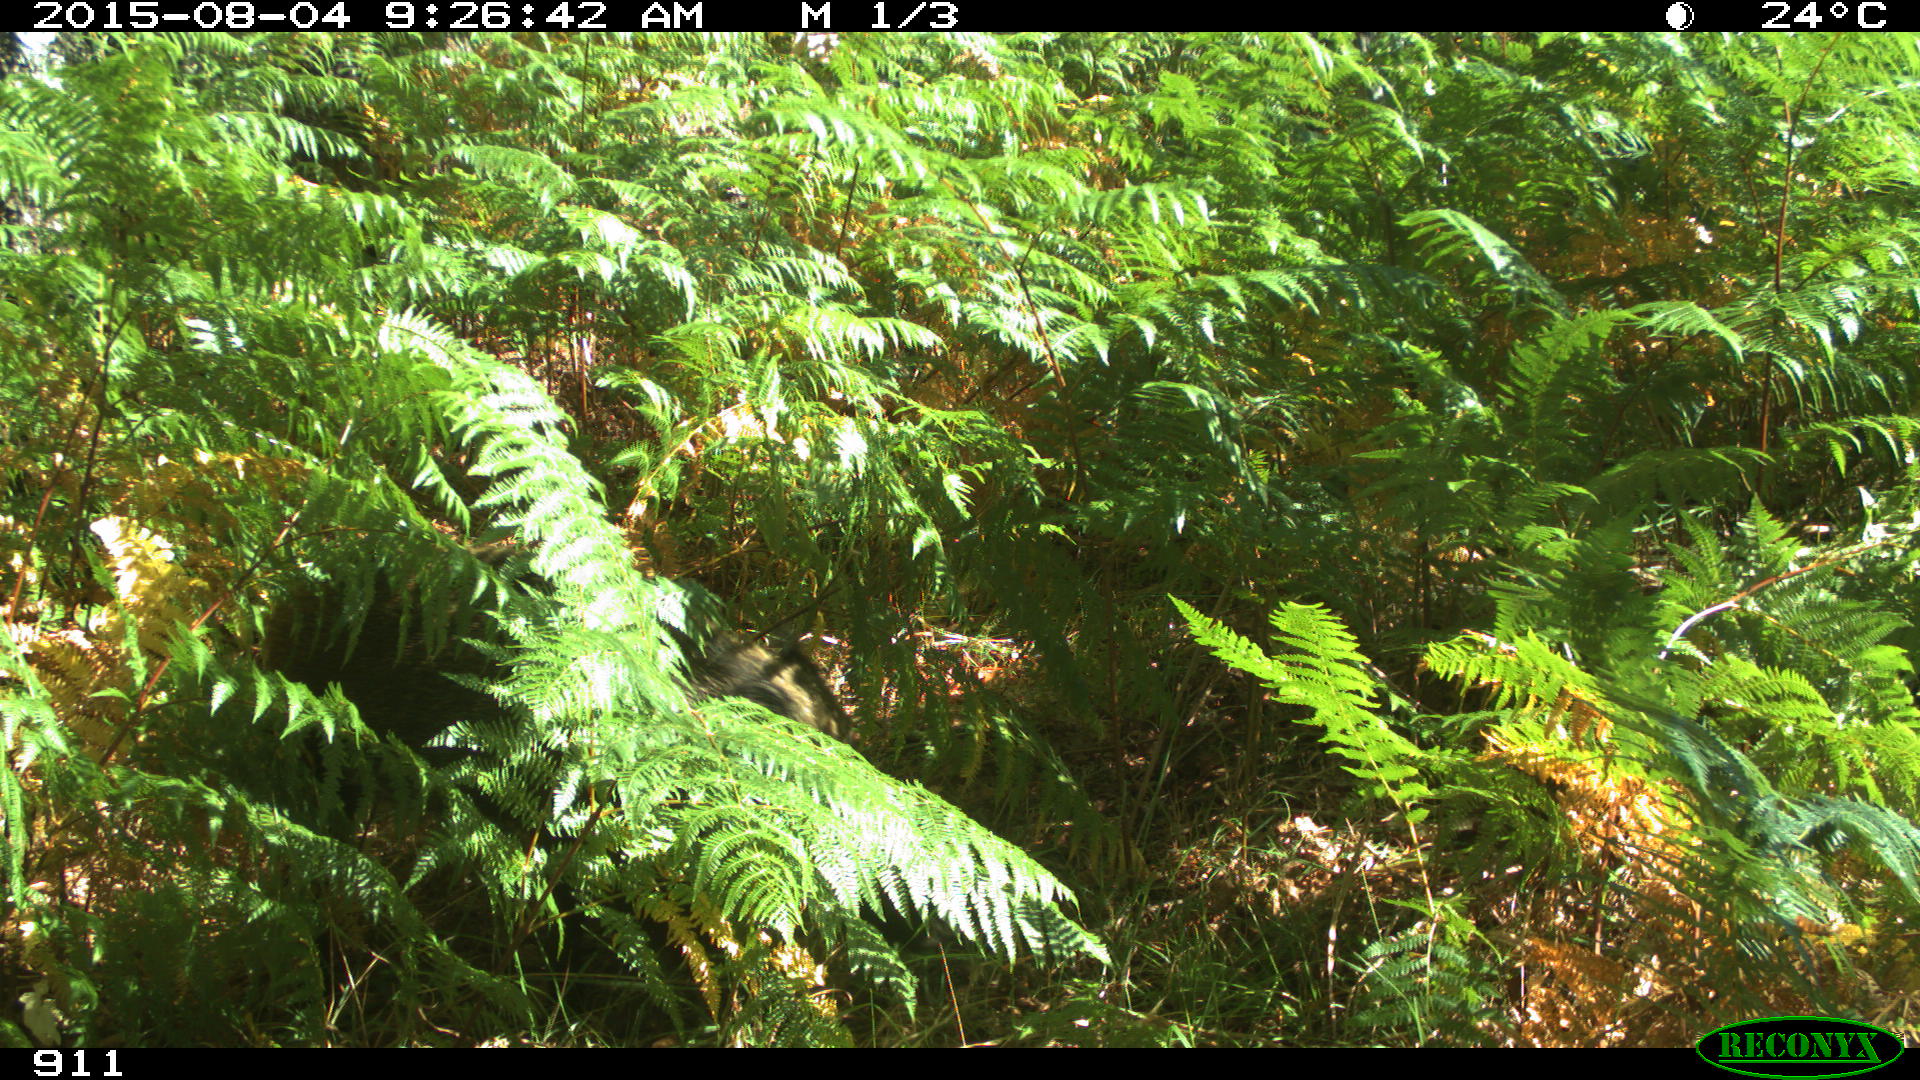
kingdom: Animalia
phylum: Chordata
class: Mammalia
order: Artiodactyla
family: Suidae
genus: Sus
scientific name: Sus scrofa
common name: Wild boar
